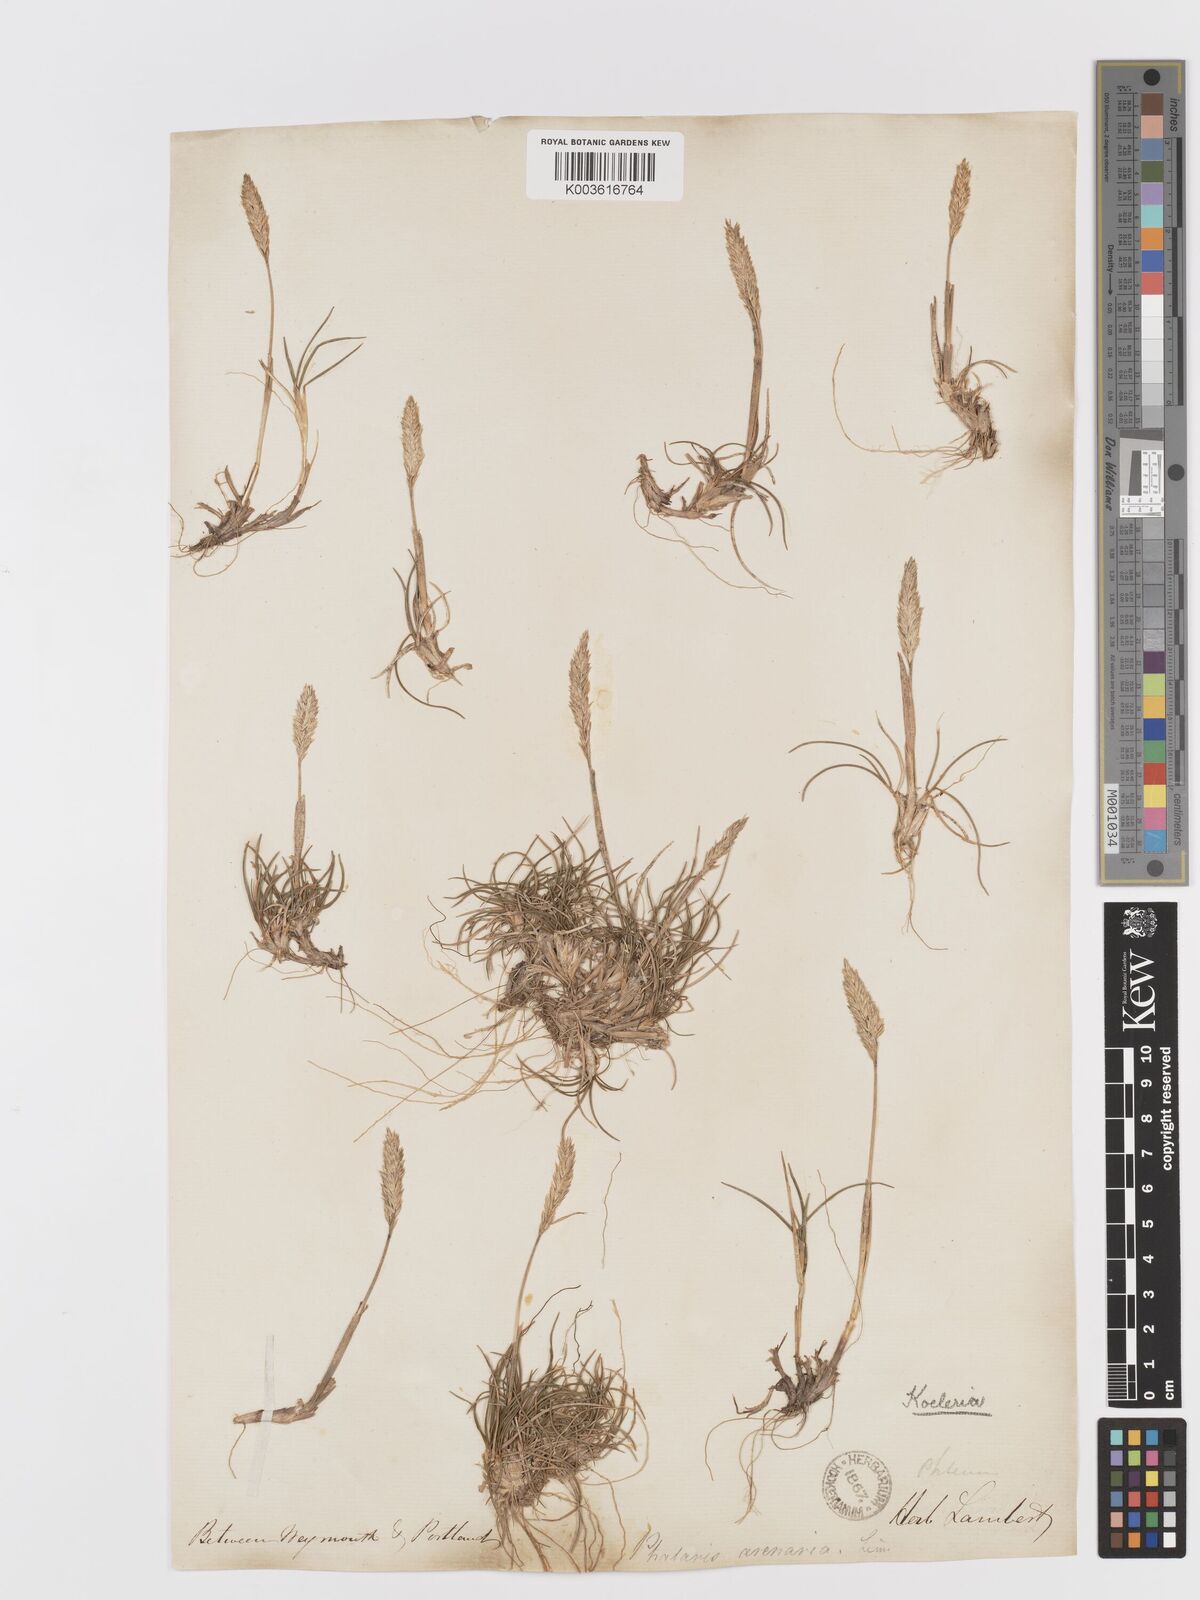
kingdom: Plantae
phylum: Tracheophyta
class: Liliopsida
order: Poales
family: Poaceae
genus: Koeleria
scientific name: Koeleria
